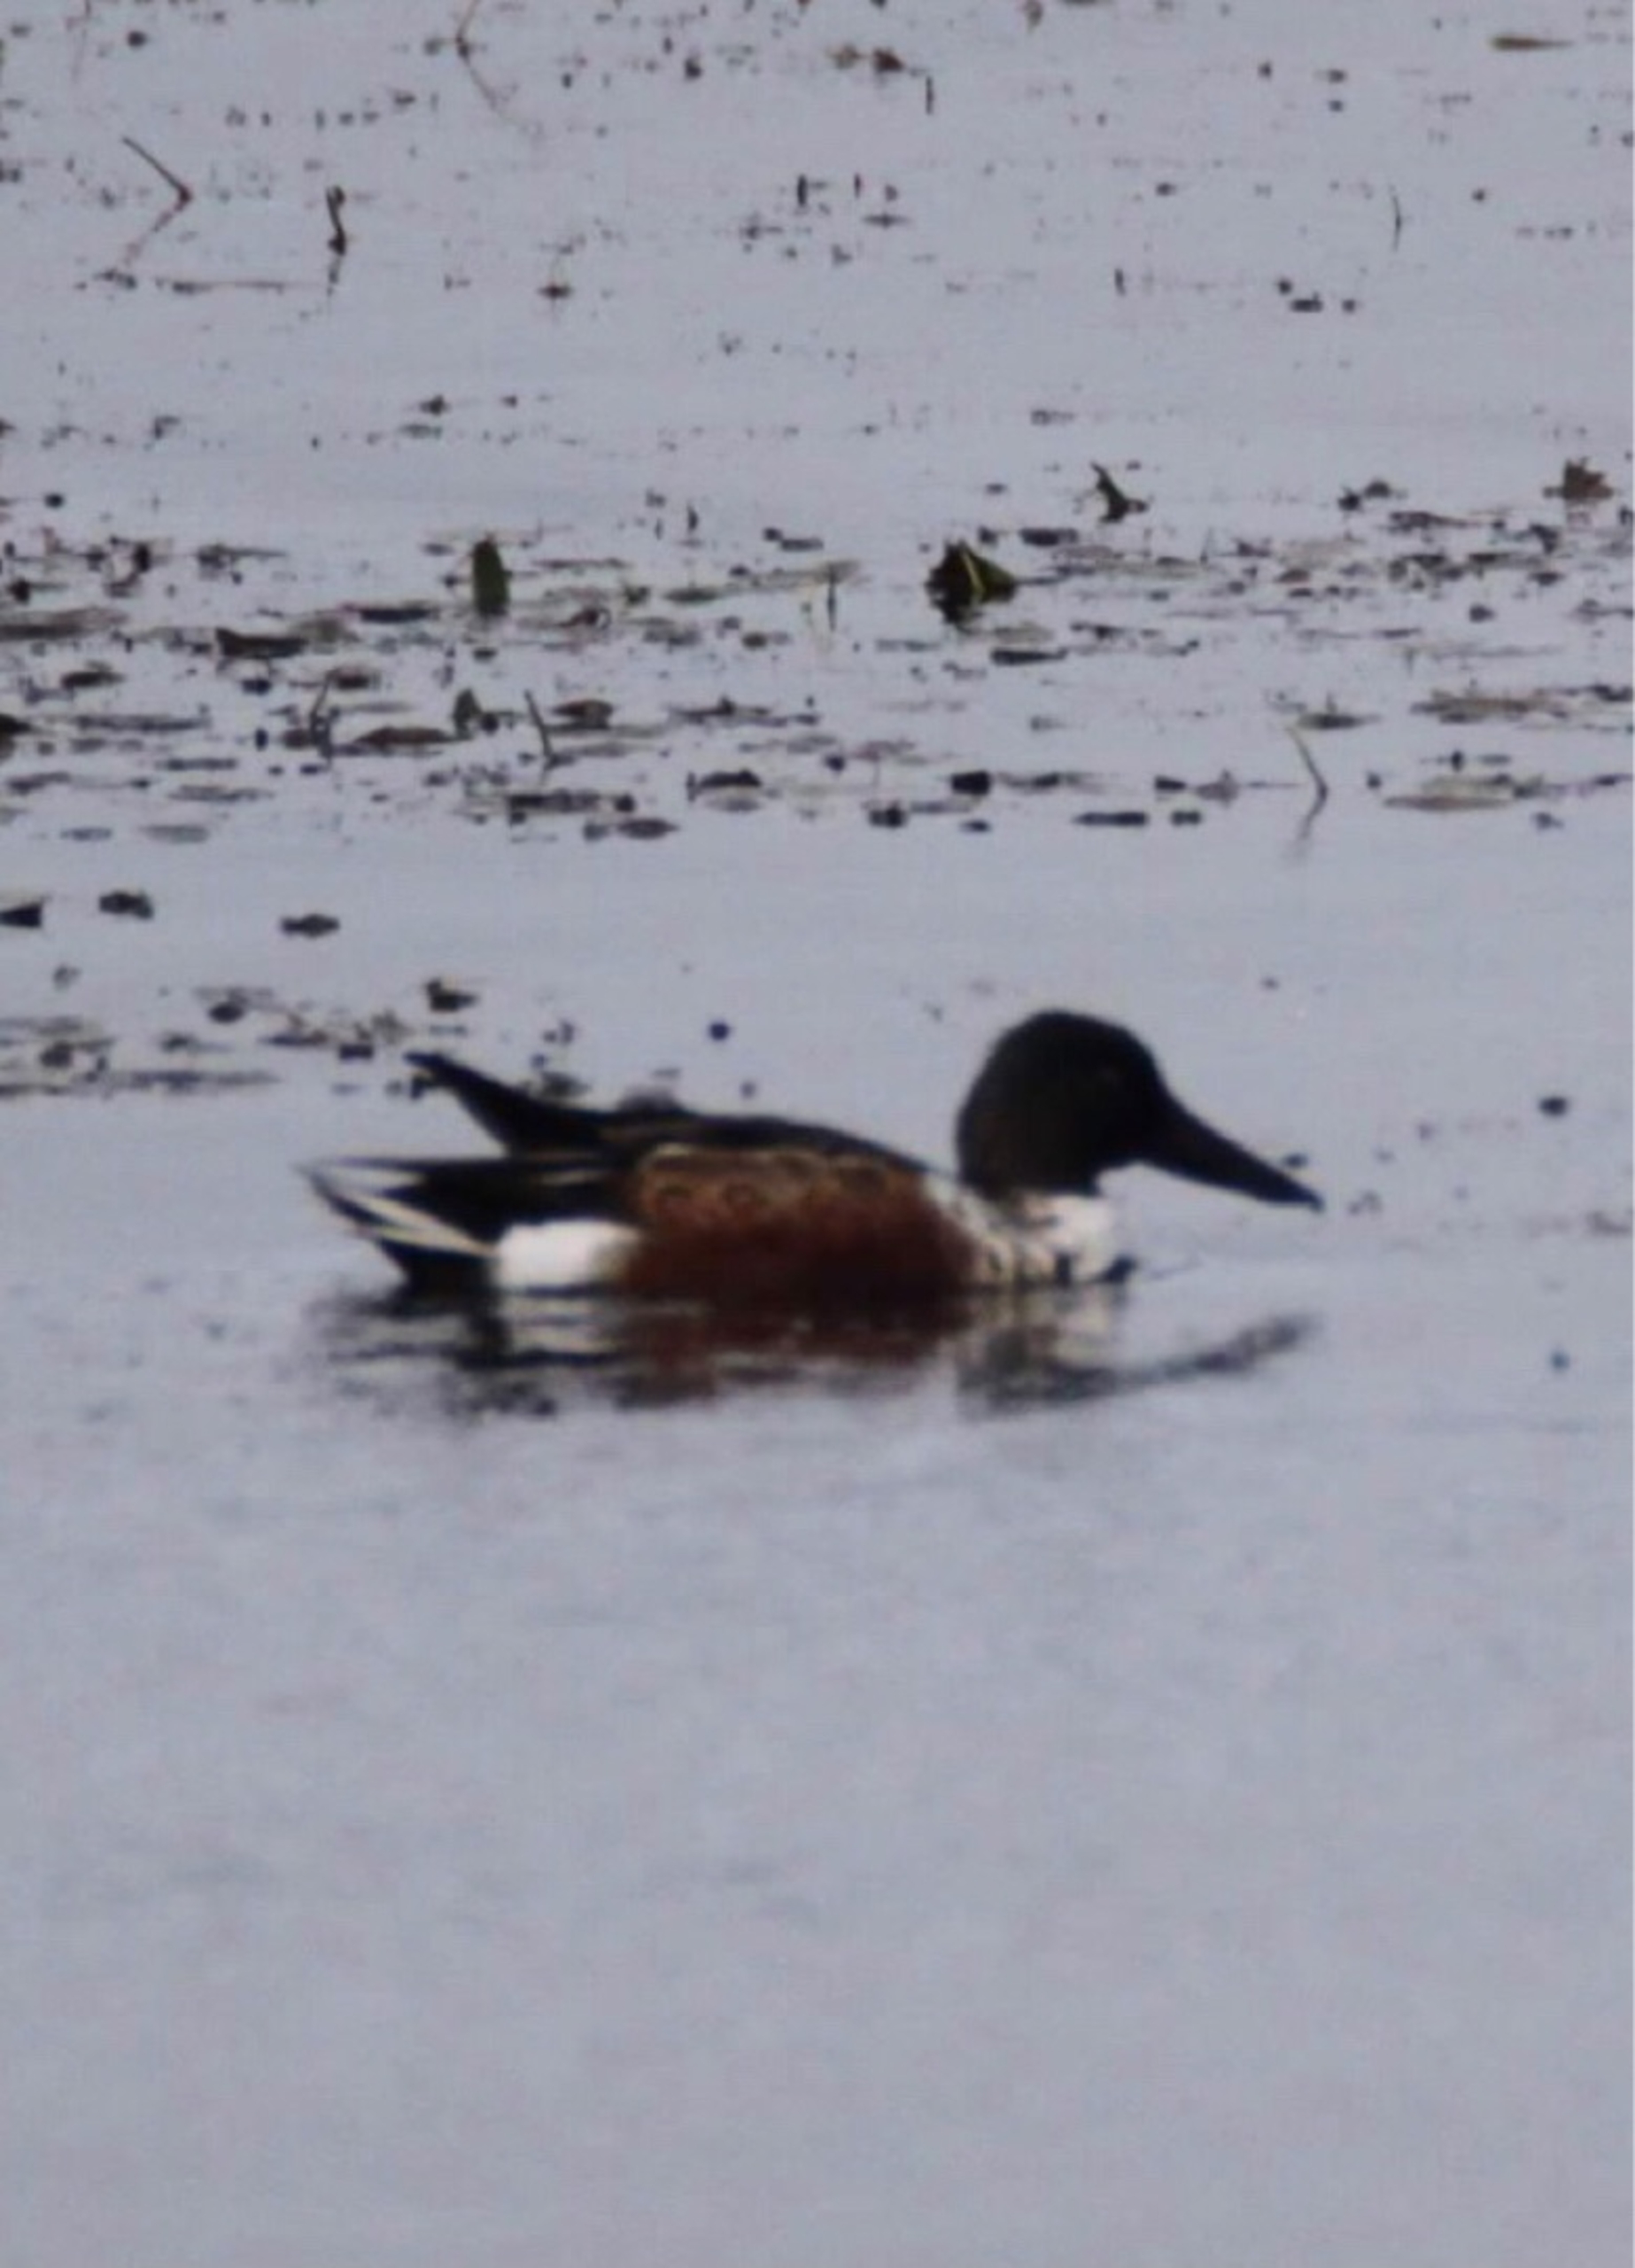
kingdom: Animalia
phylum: Chordata
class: Aves
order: Anseriformes
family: Anatidae
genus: Spatula
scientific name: Spatula clypeata
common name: Skeand
